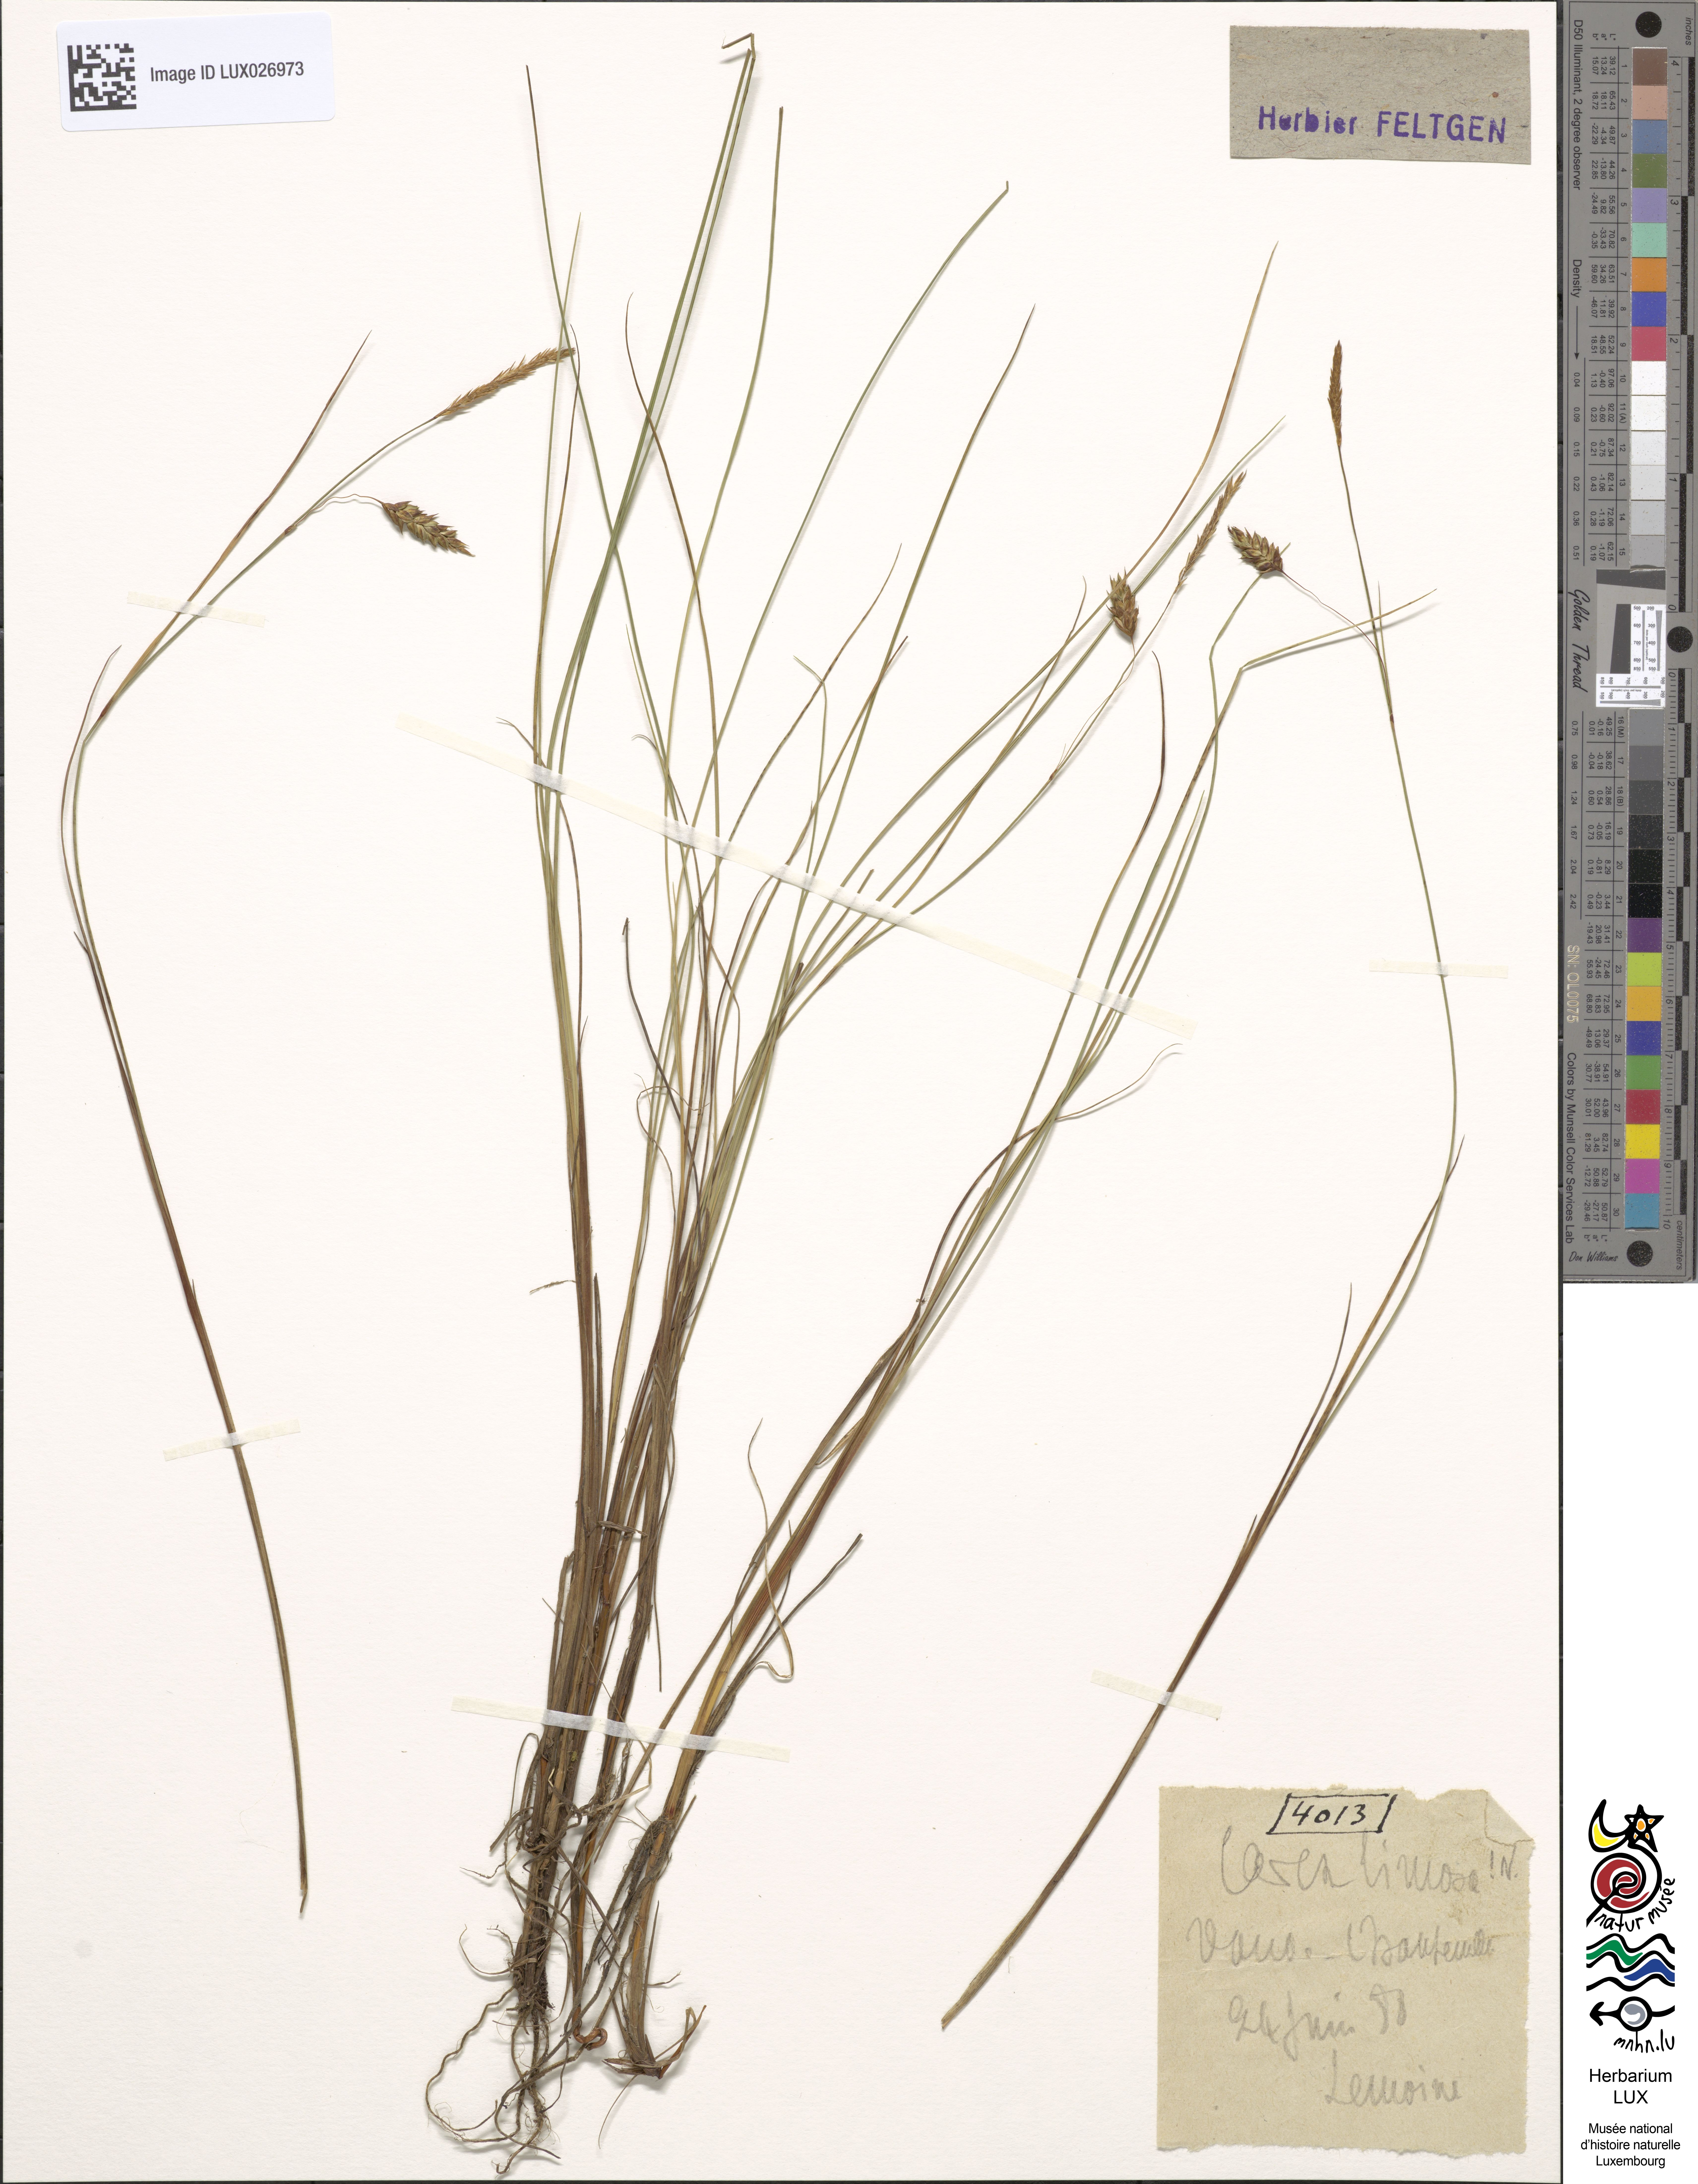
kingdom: Plantae
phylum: Tracheophyta
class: Liliopsida
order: Poales
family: Cyperaceae
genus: Carex
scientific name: Carex limosa
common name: Bog sedge
